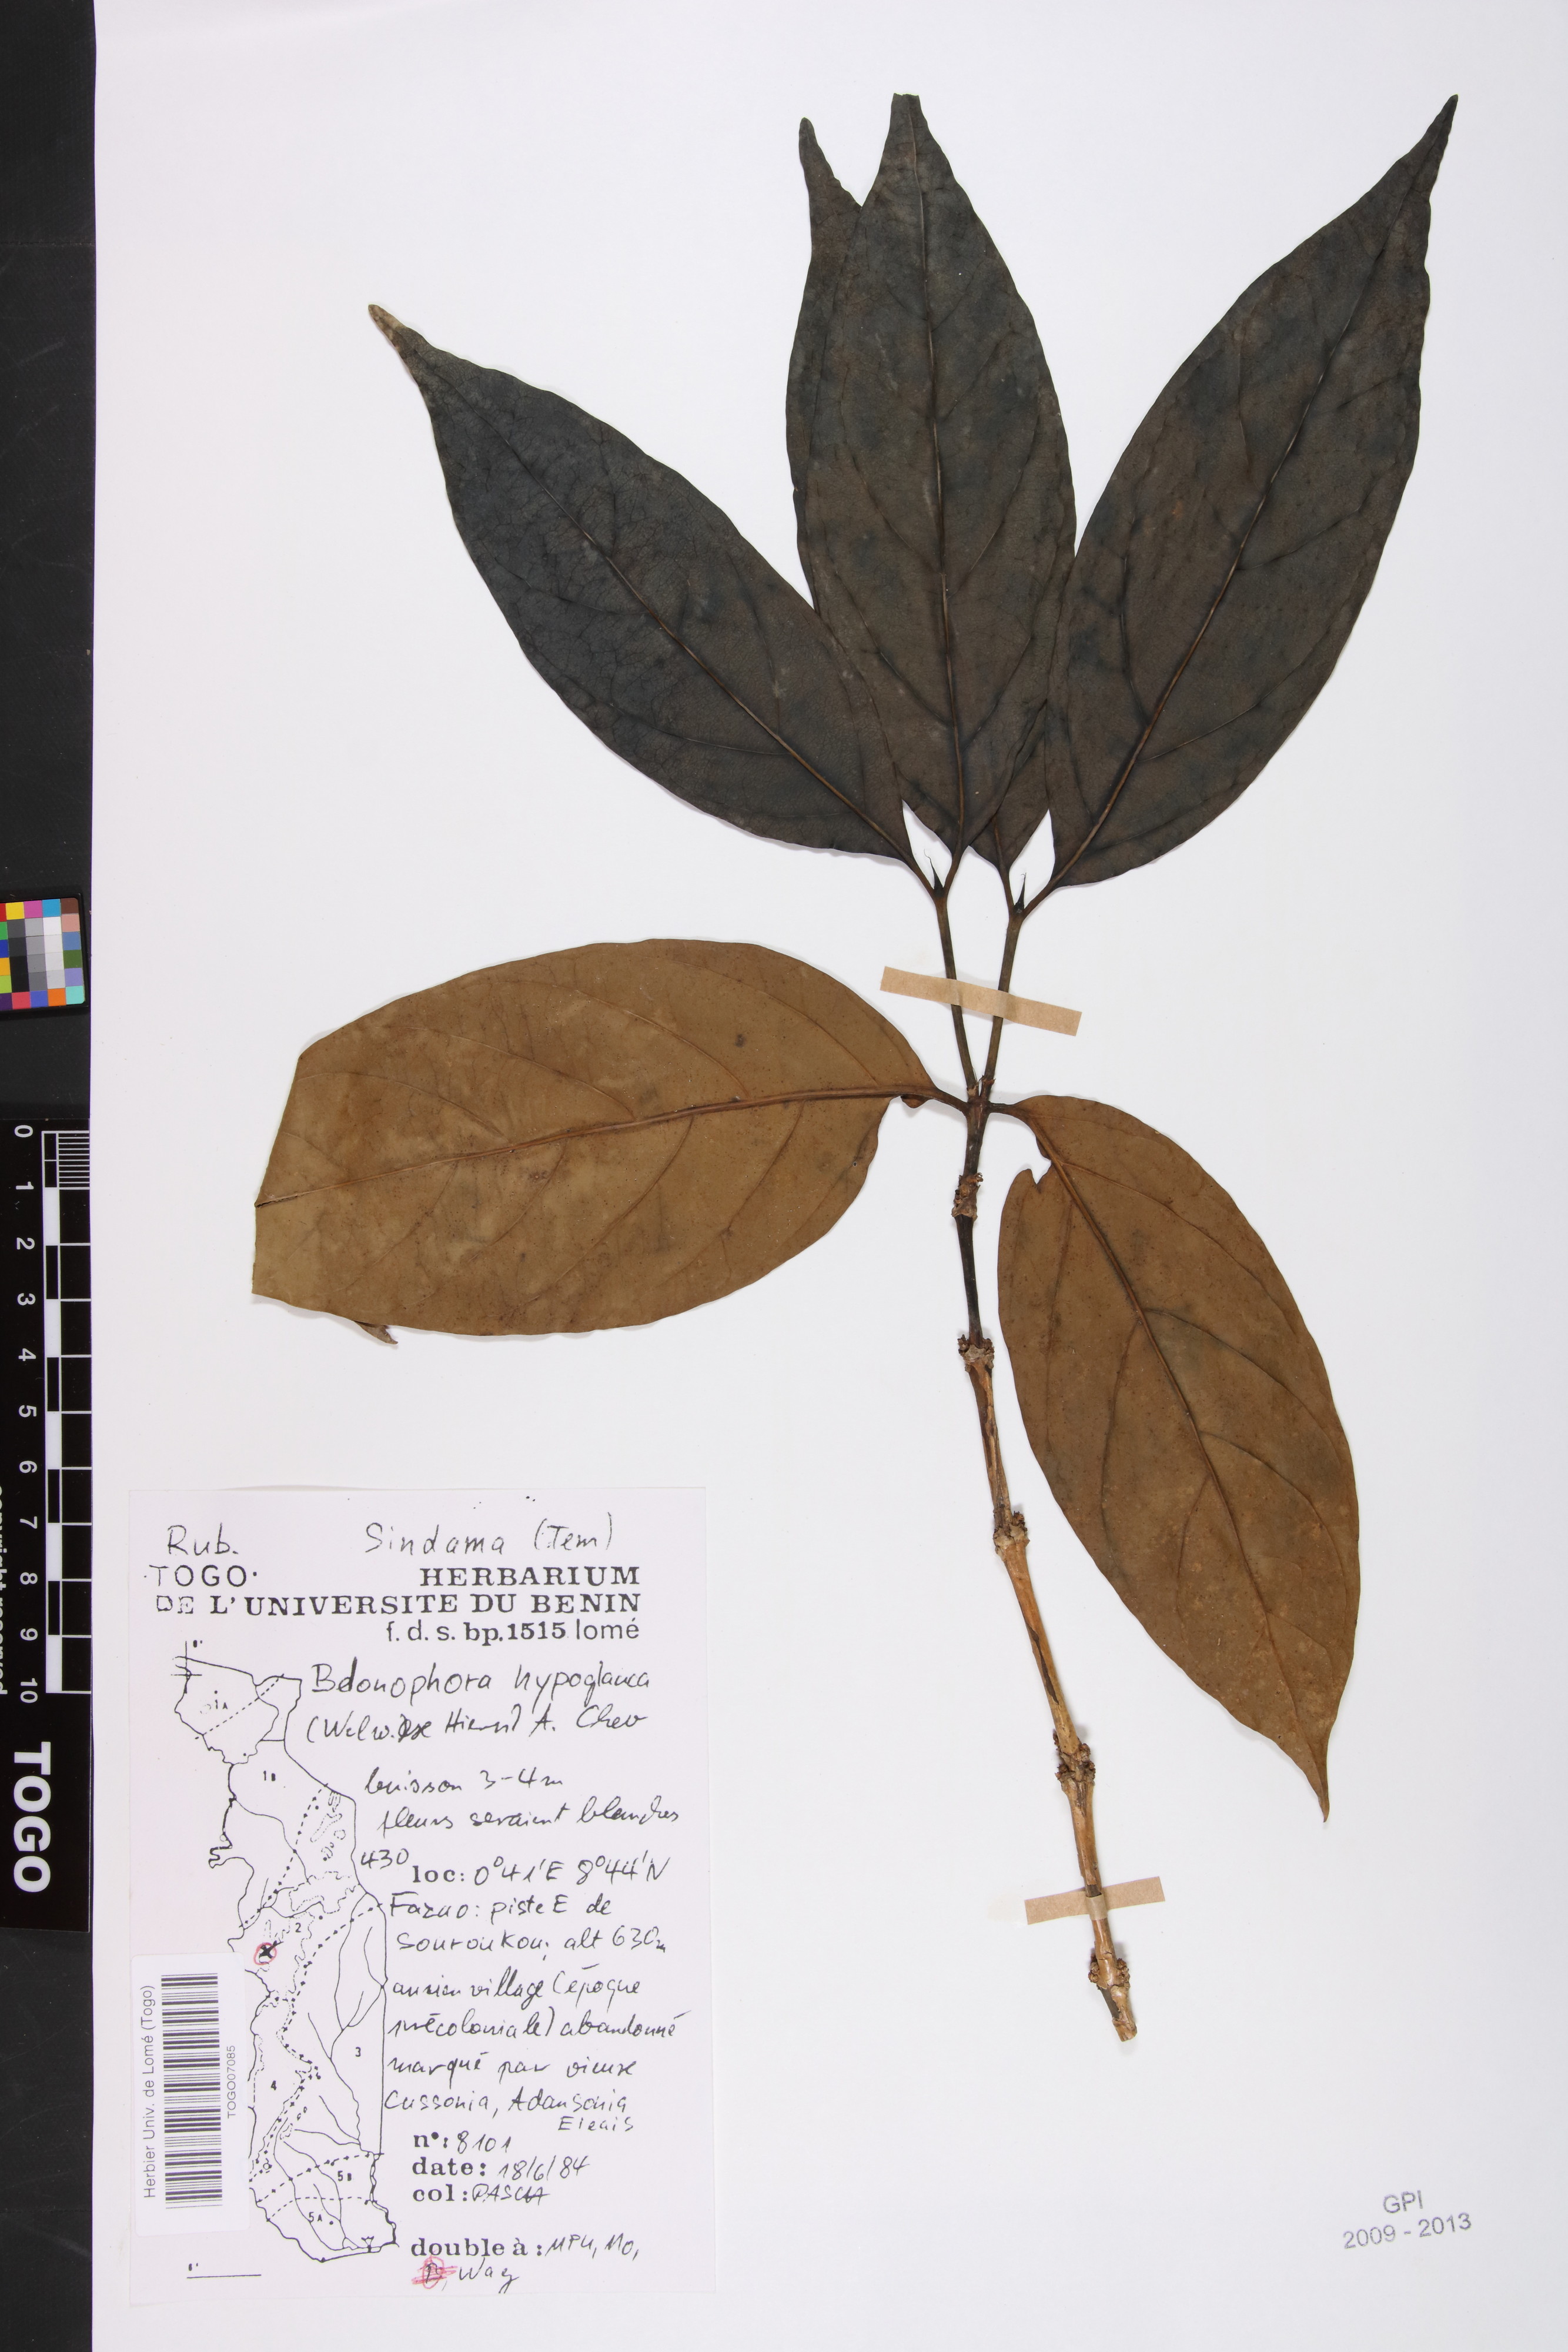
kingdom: Plantae
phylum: Tracheophyta
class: Magnoliopsida
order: Gentianales
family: Rubiaceae
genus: Belonophora
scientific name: Belonophora coffeoides
